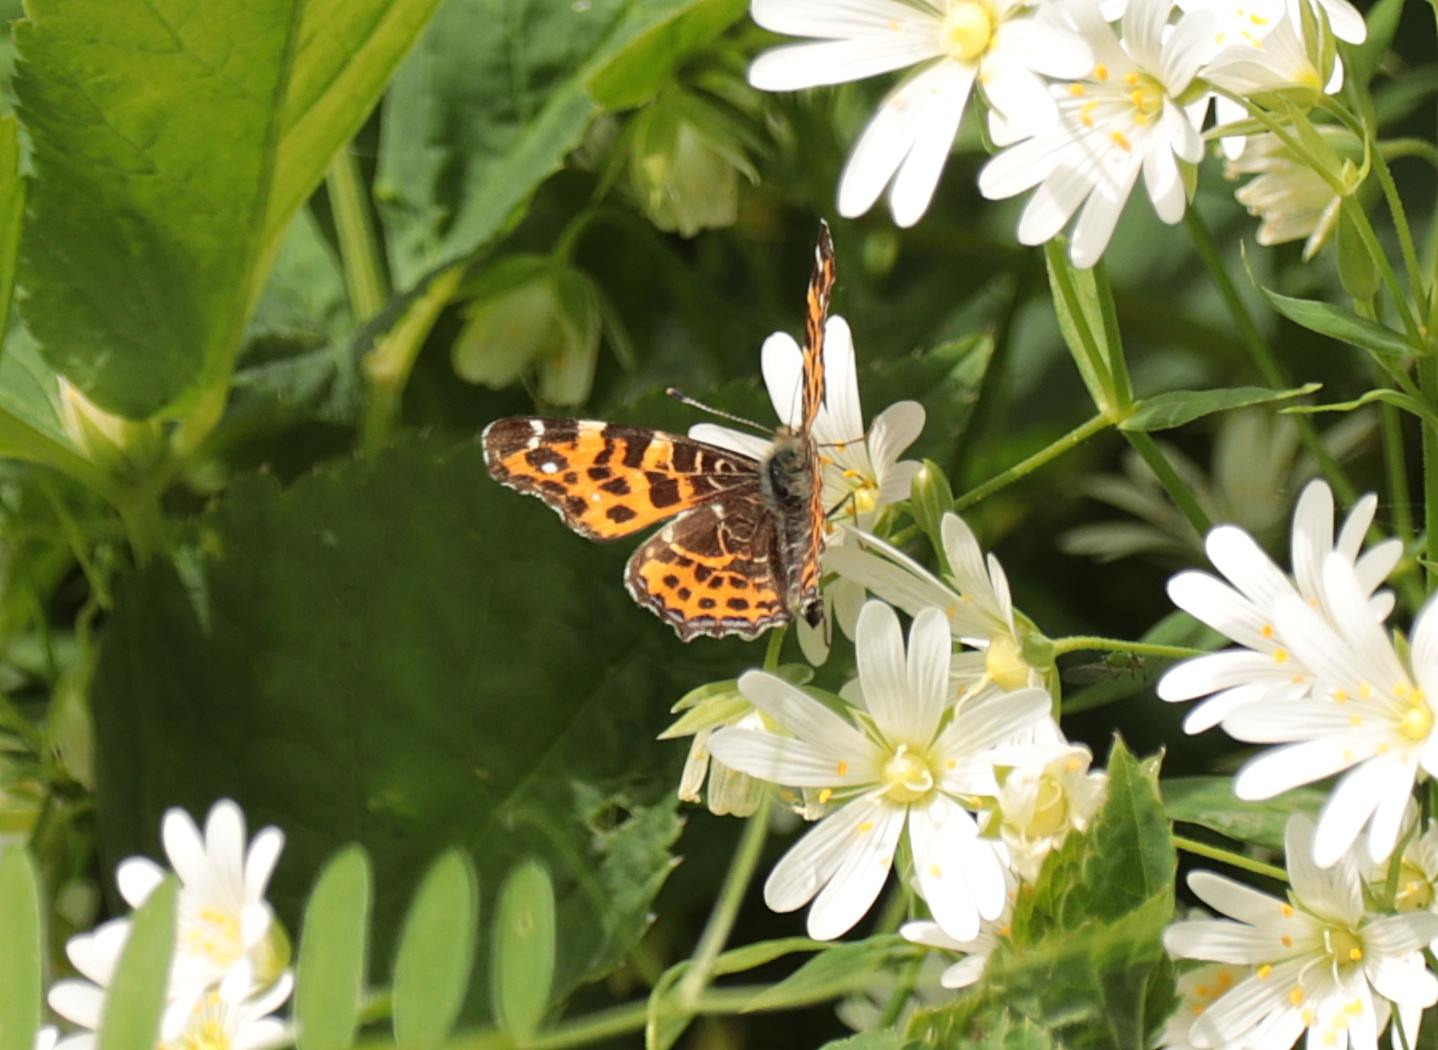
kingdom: Animalia
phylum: Arthropoda
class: Insecta
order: Lepidoptera
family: Nymphalidae
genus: Araschnia
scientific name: Araschnia levana
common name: Nældesommerfugl
